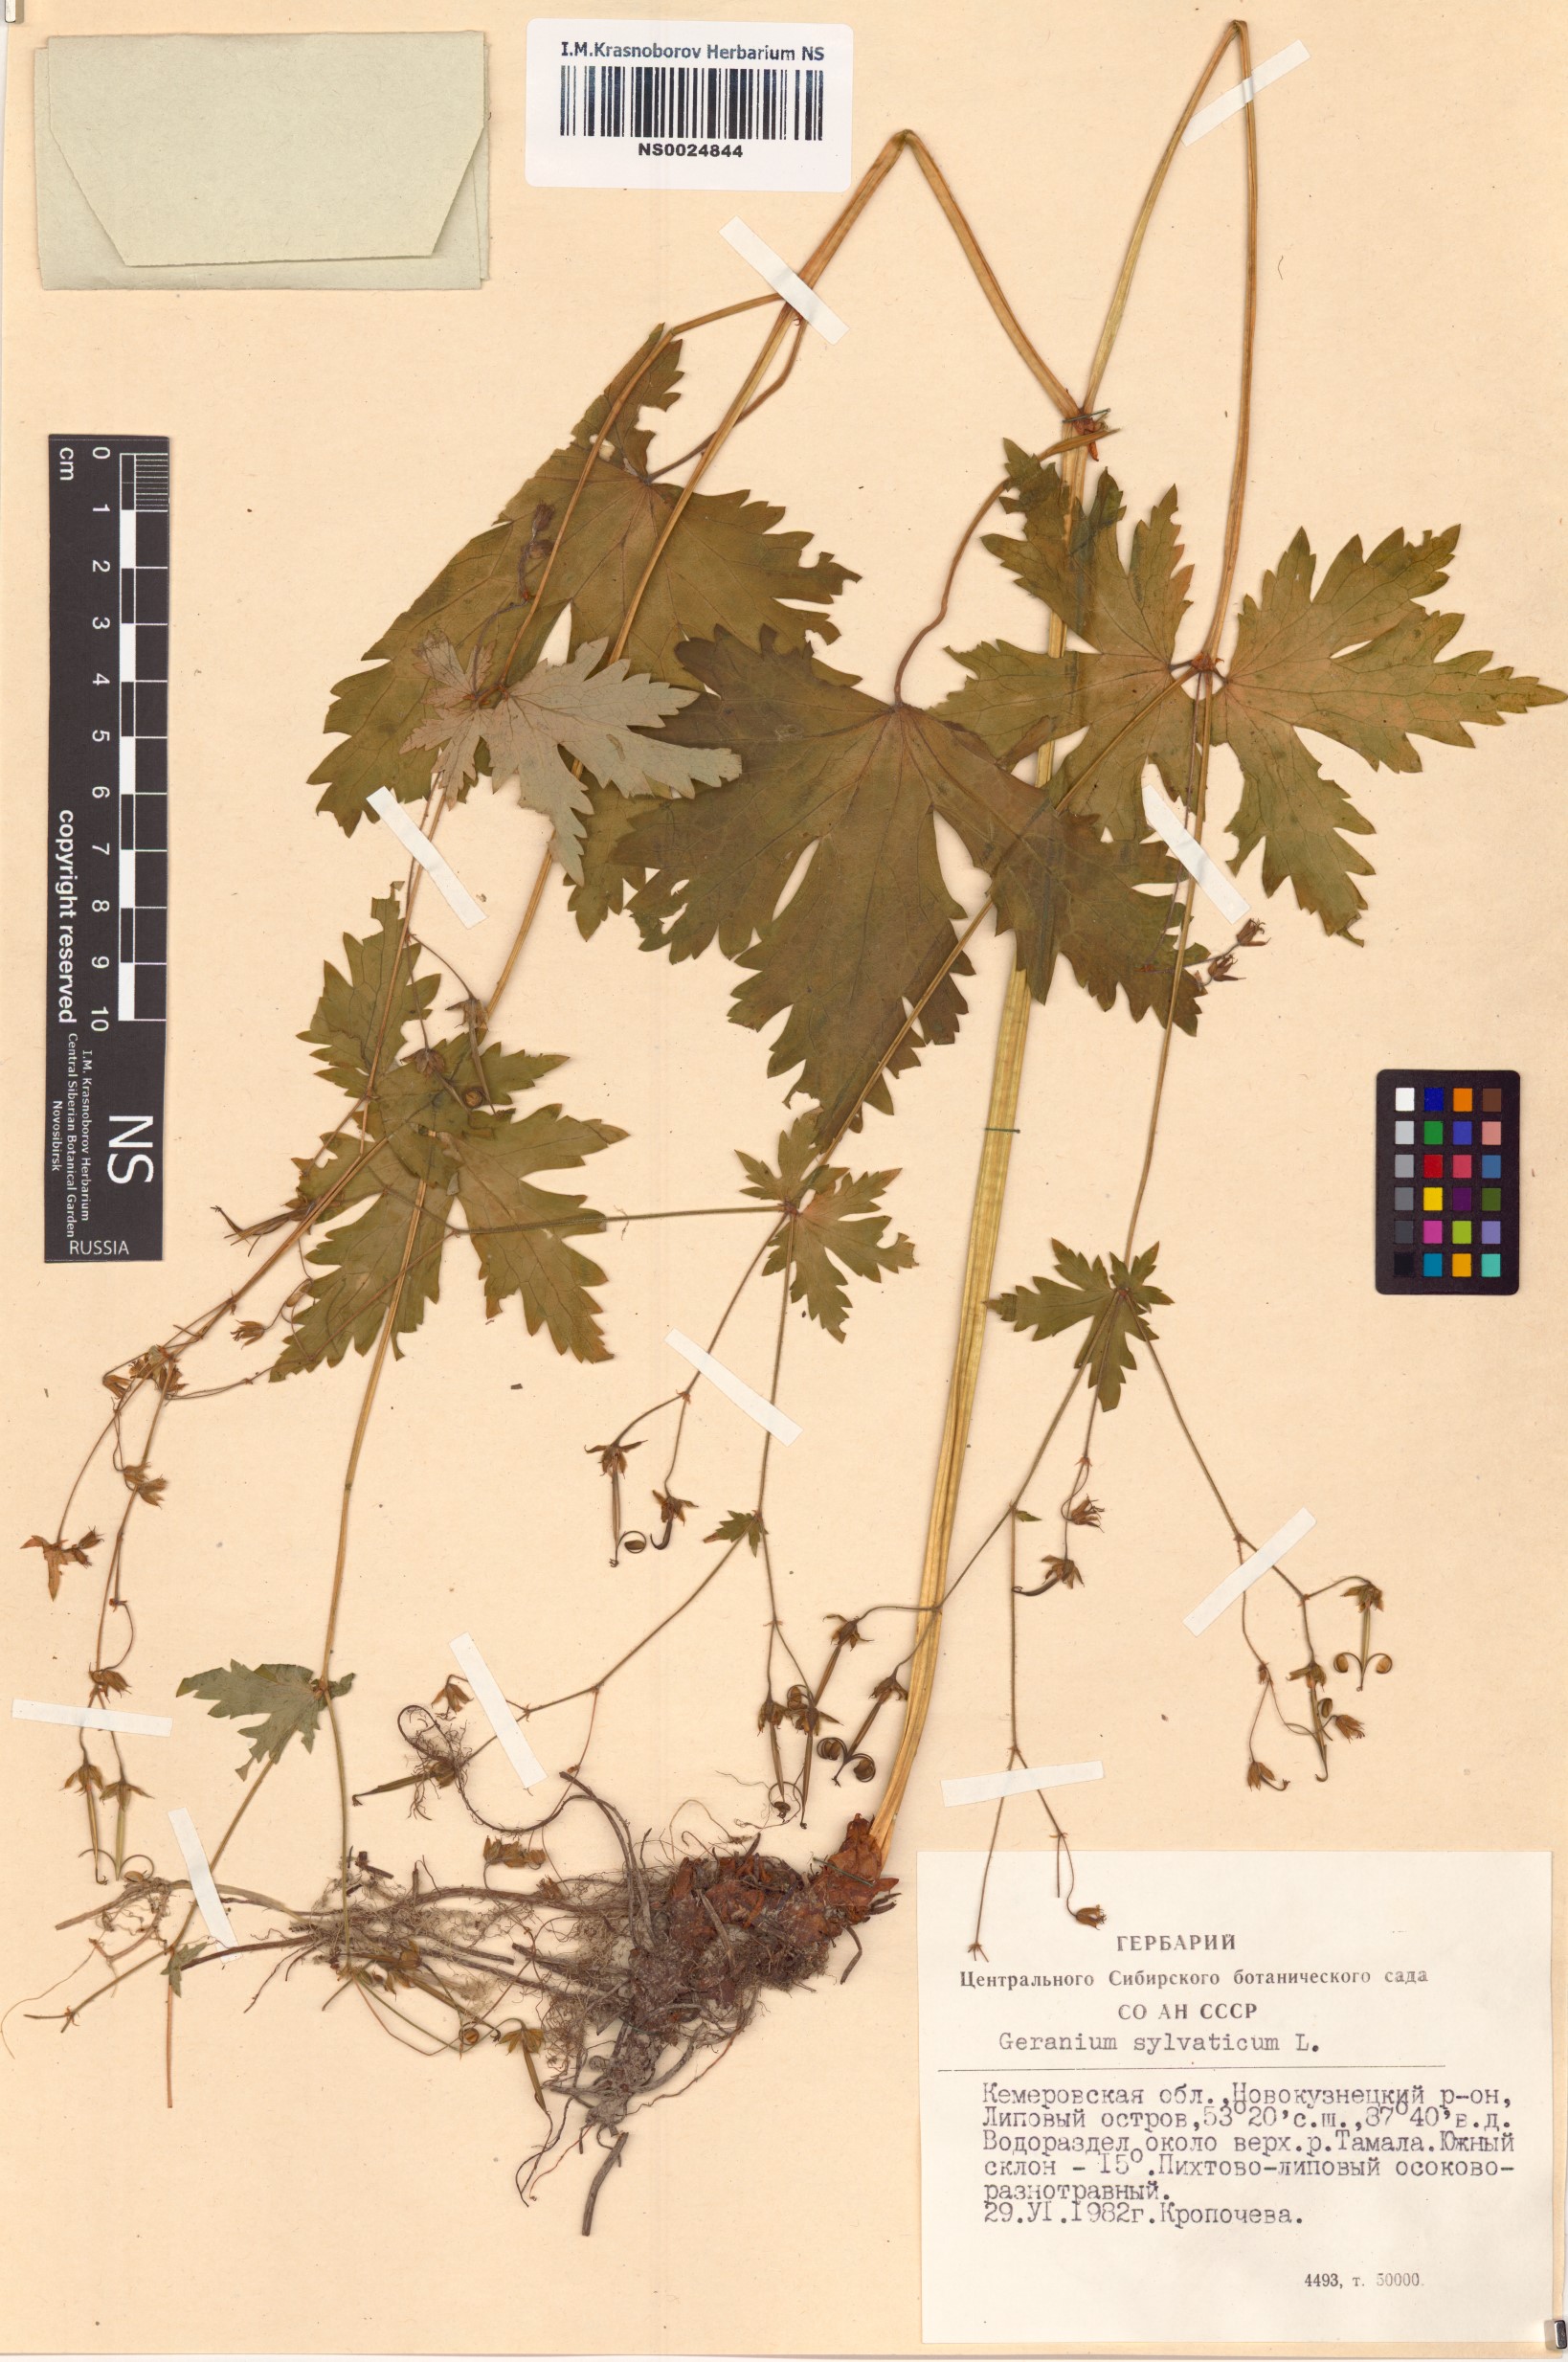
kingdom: Plantae
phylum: Tracheophyta
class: Magnoliopsida
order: Geraniales
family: Geraniaceae
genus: Geranium
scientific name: Geranium sylvaticum
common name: Wood crane's-bill
